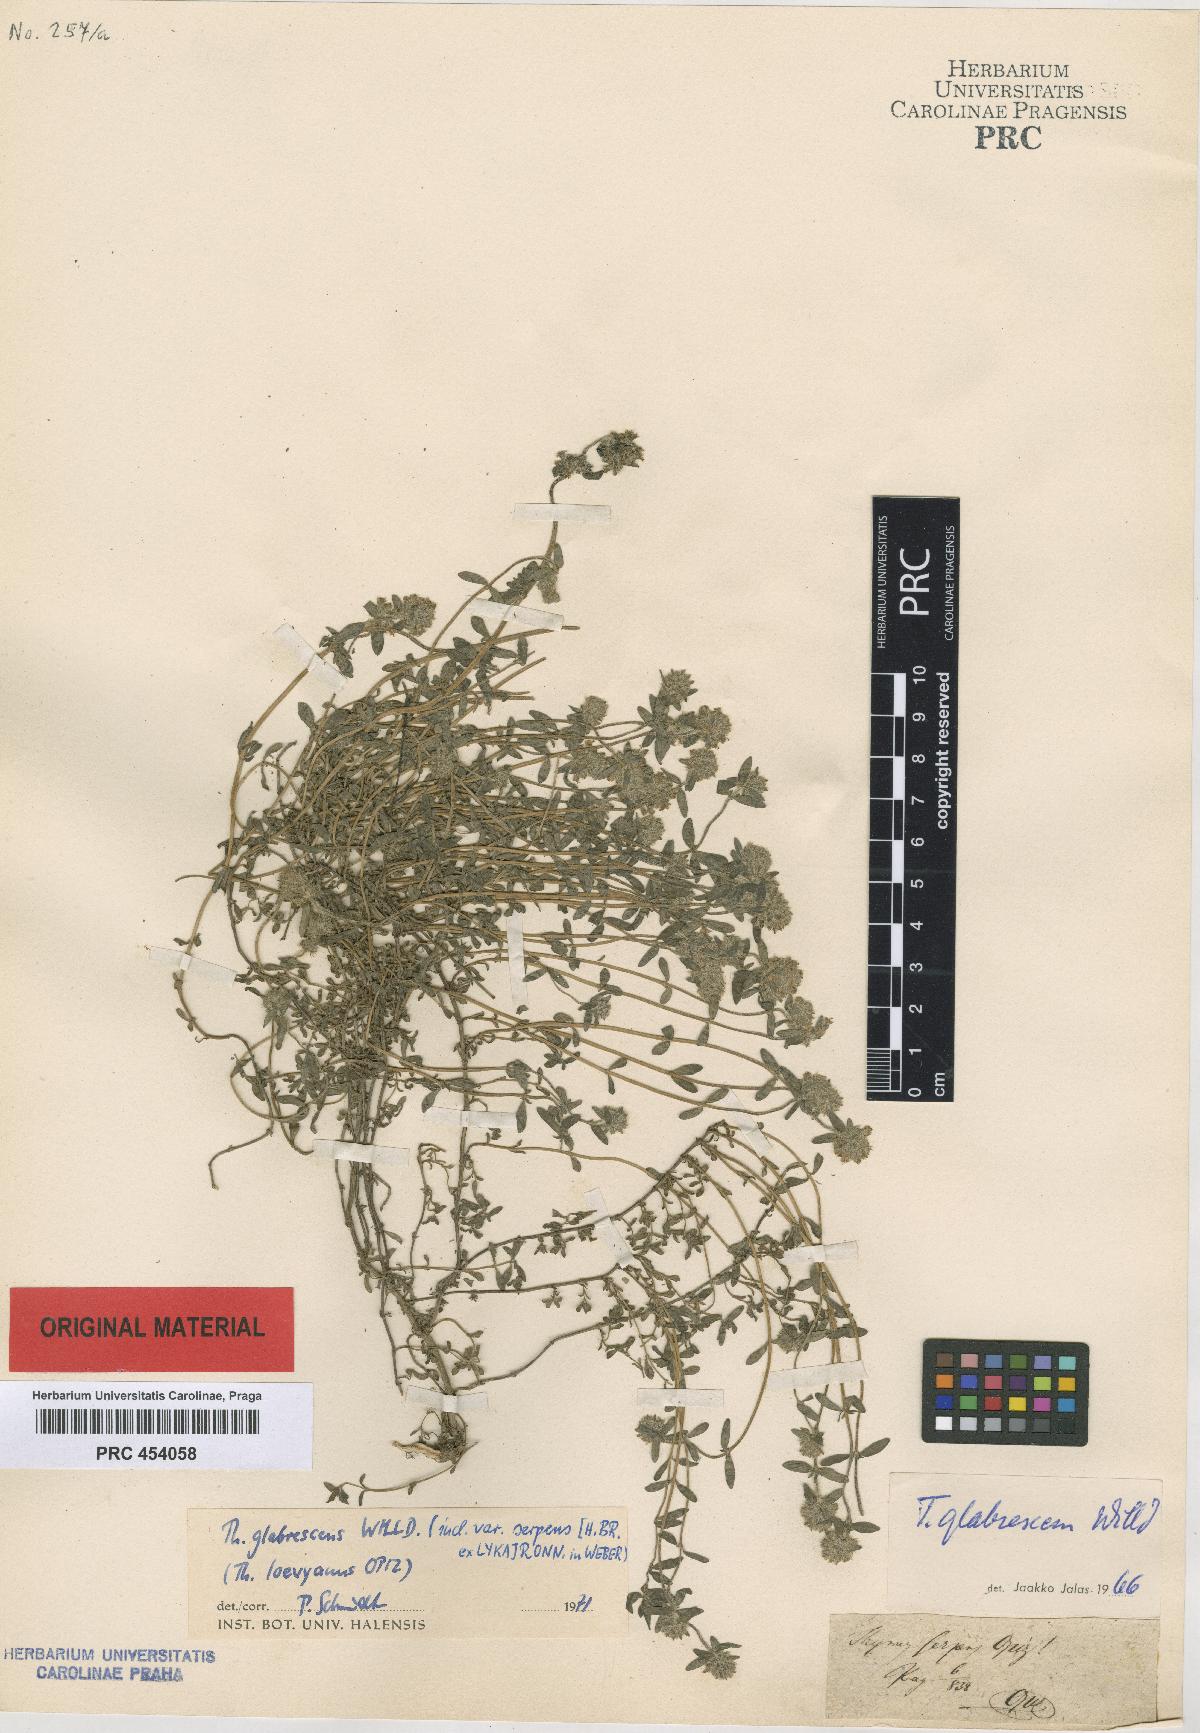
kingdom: Plantae
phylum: Tracheophyta
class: Magnoliopsida
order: Lamiales
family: Lamiaceae
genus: Thymus
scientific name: Thymus odoratissimus
